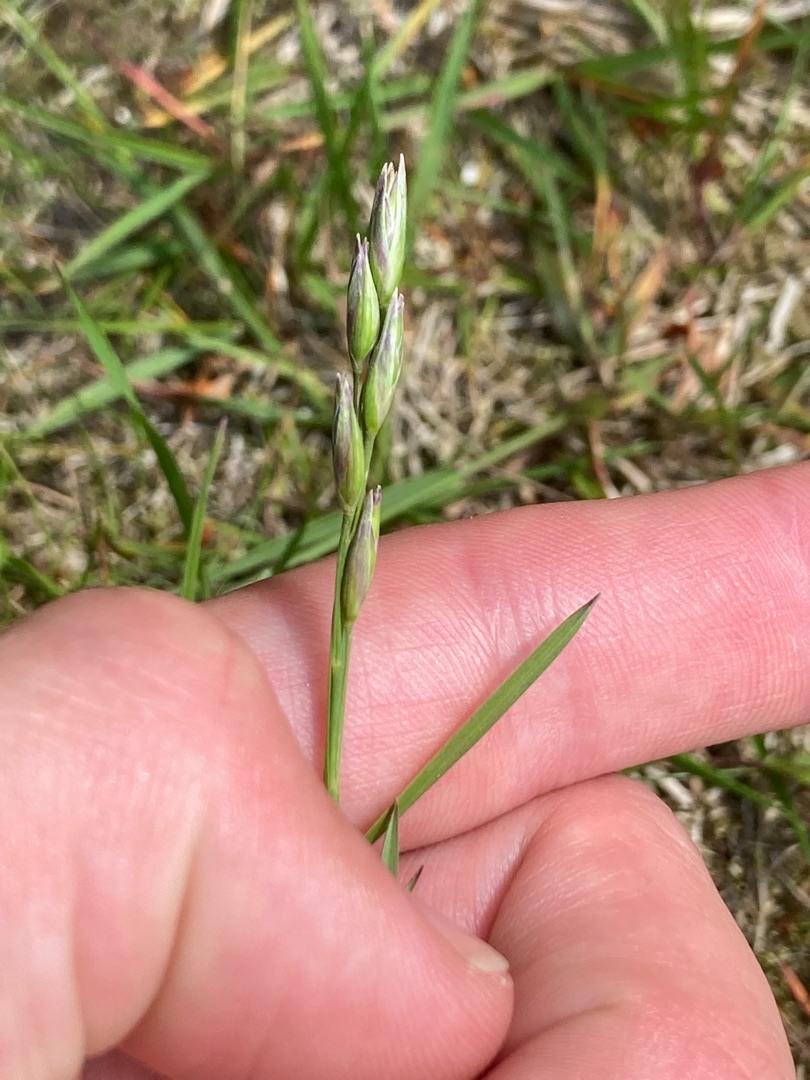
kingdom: Plantae
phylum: Tracheophyta
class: Liliopsida
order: Poales
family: Poaceae
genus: Danthonia
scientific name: Danthonia decumbens
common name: Tandbælg
